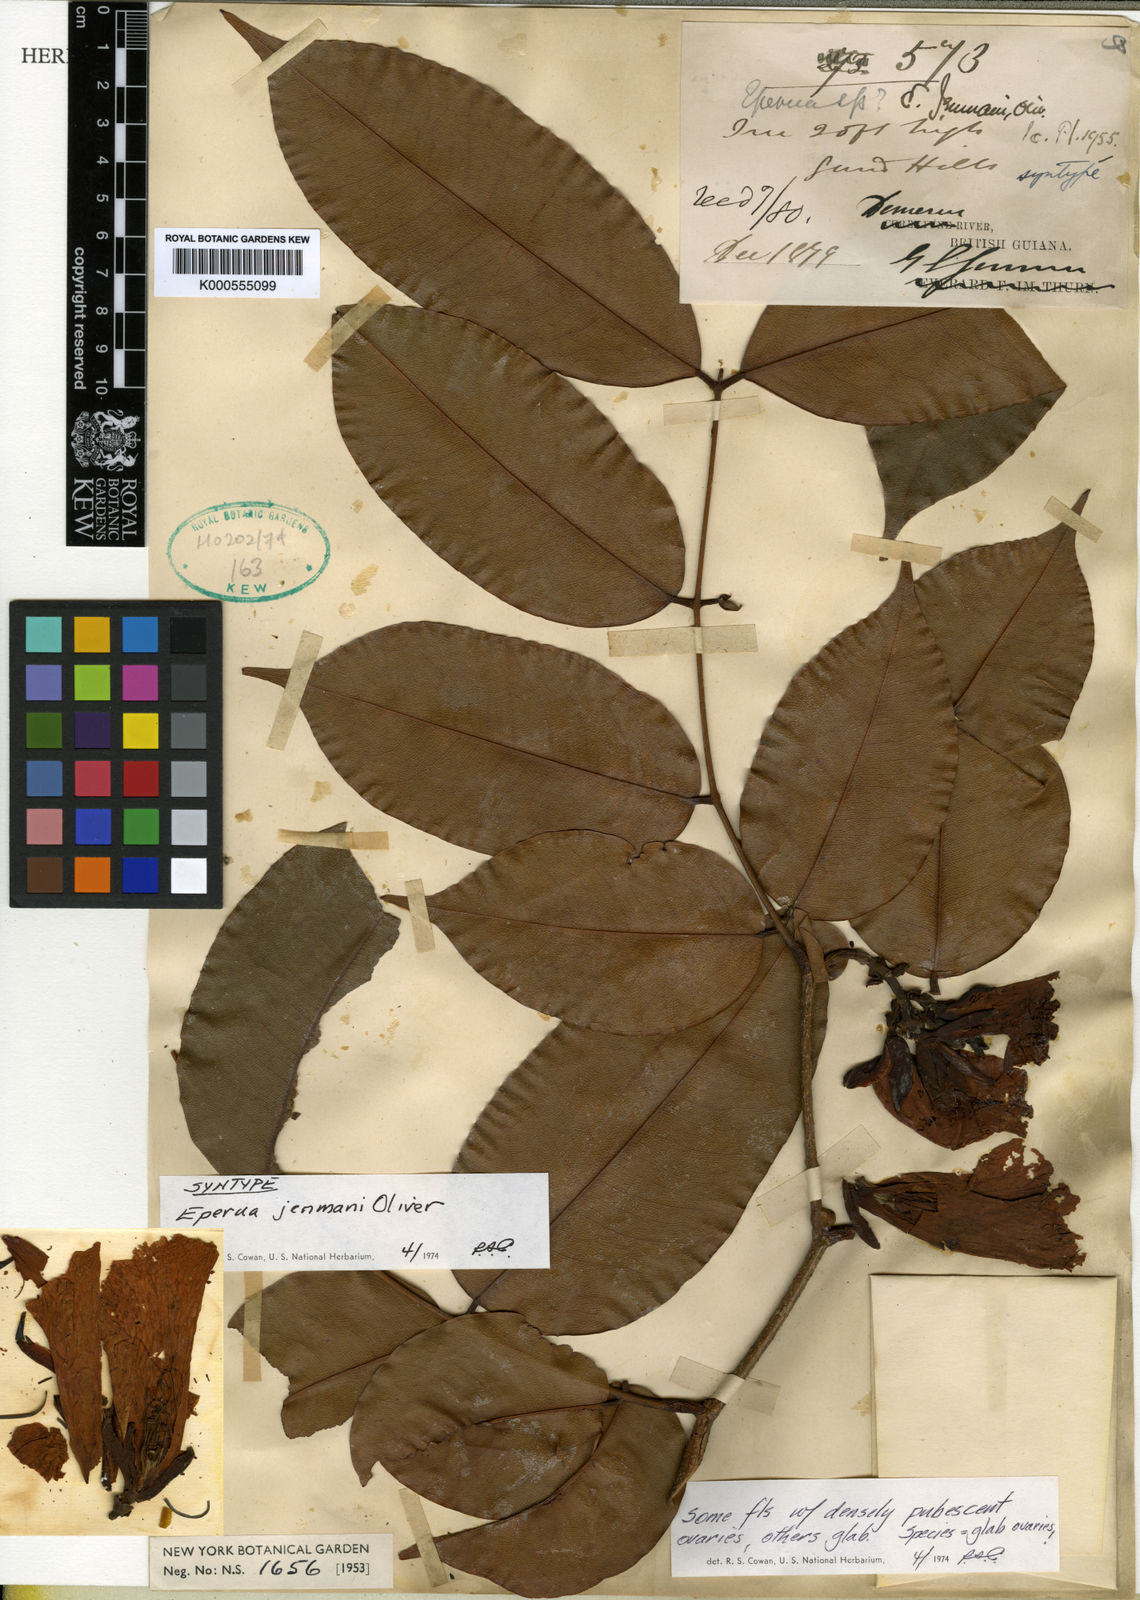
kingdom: Plantae
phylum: Tracheophyta
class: Magnoliopsida
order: Fabales
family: Fabaceae
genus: Eperua
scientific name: Eperua jenmanii
